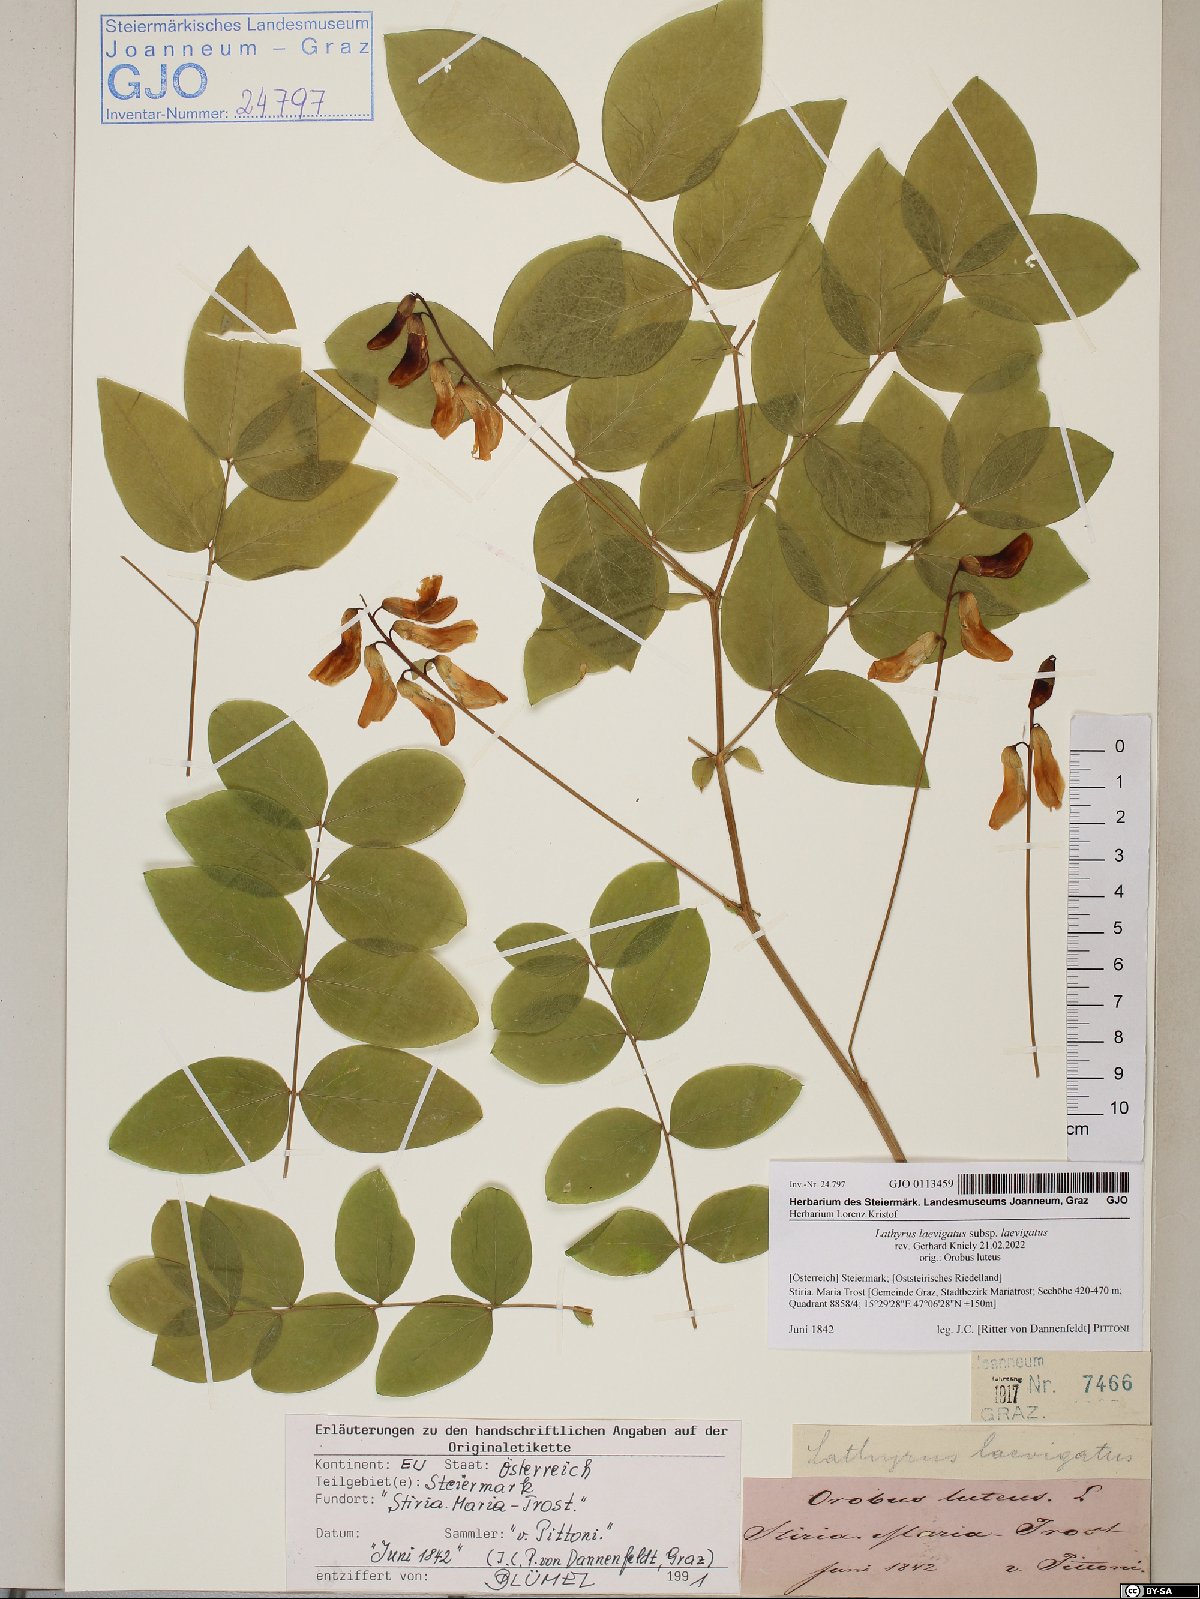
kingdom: Plantae
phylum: Tracheophyta
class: Magnoliopsida
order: Fabales
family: Fabaceae
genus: Lathyrus
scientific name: Lathyrus laevigatus
